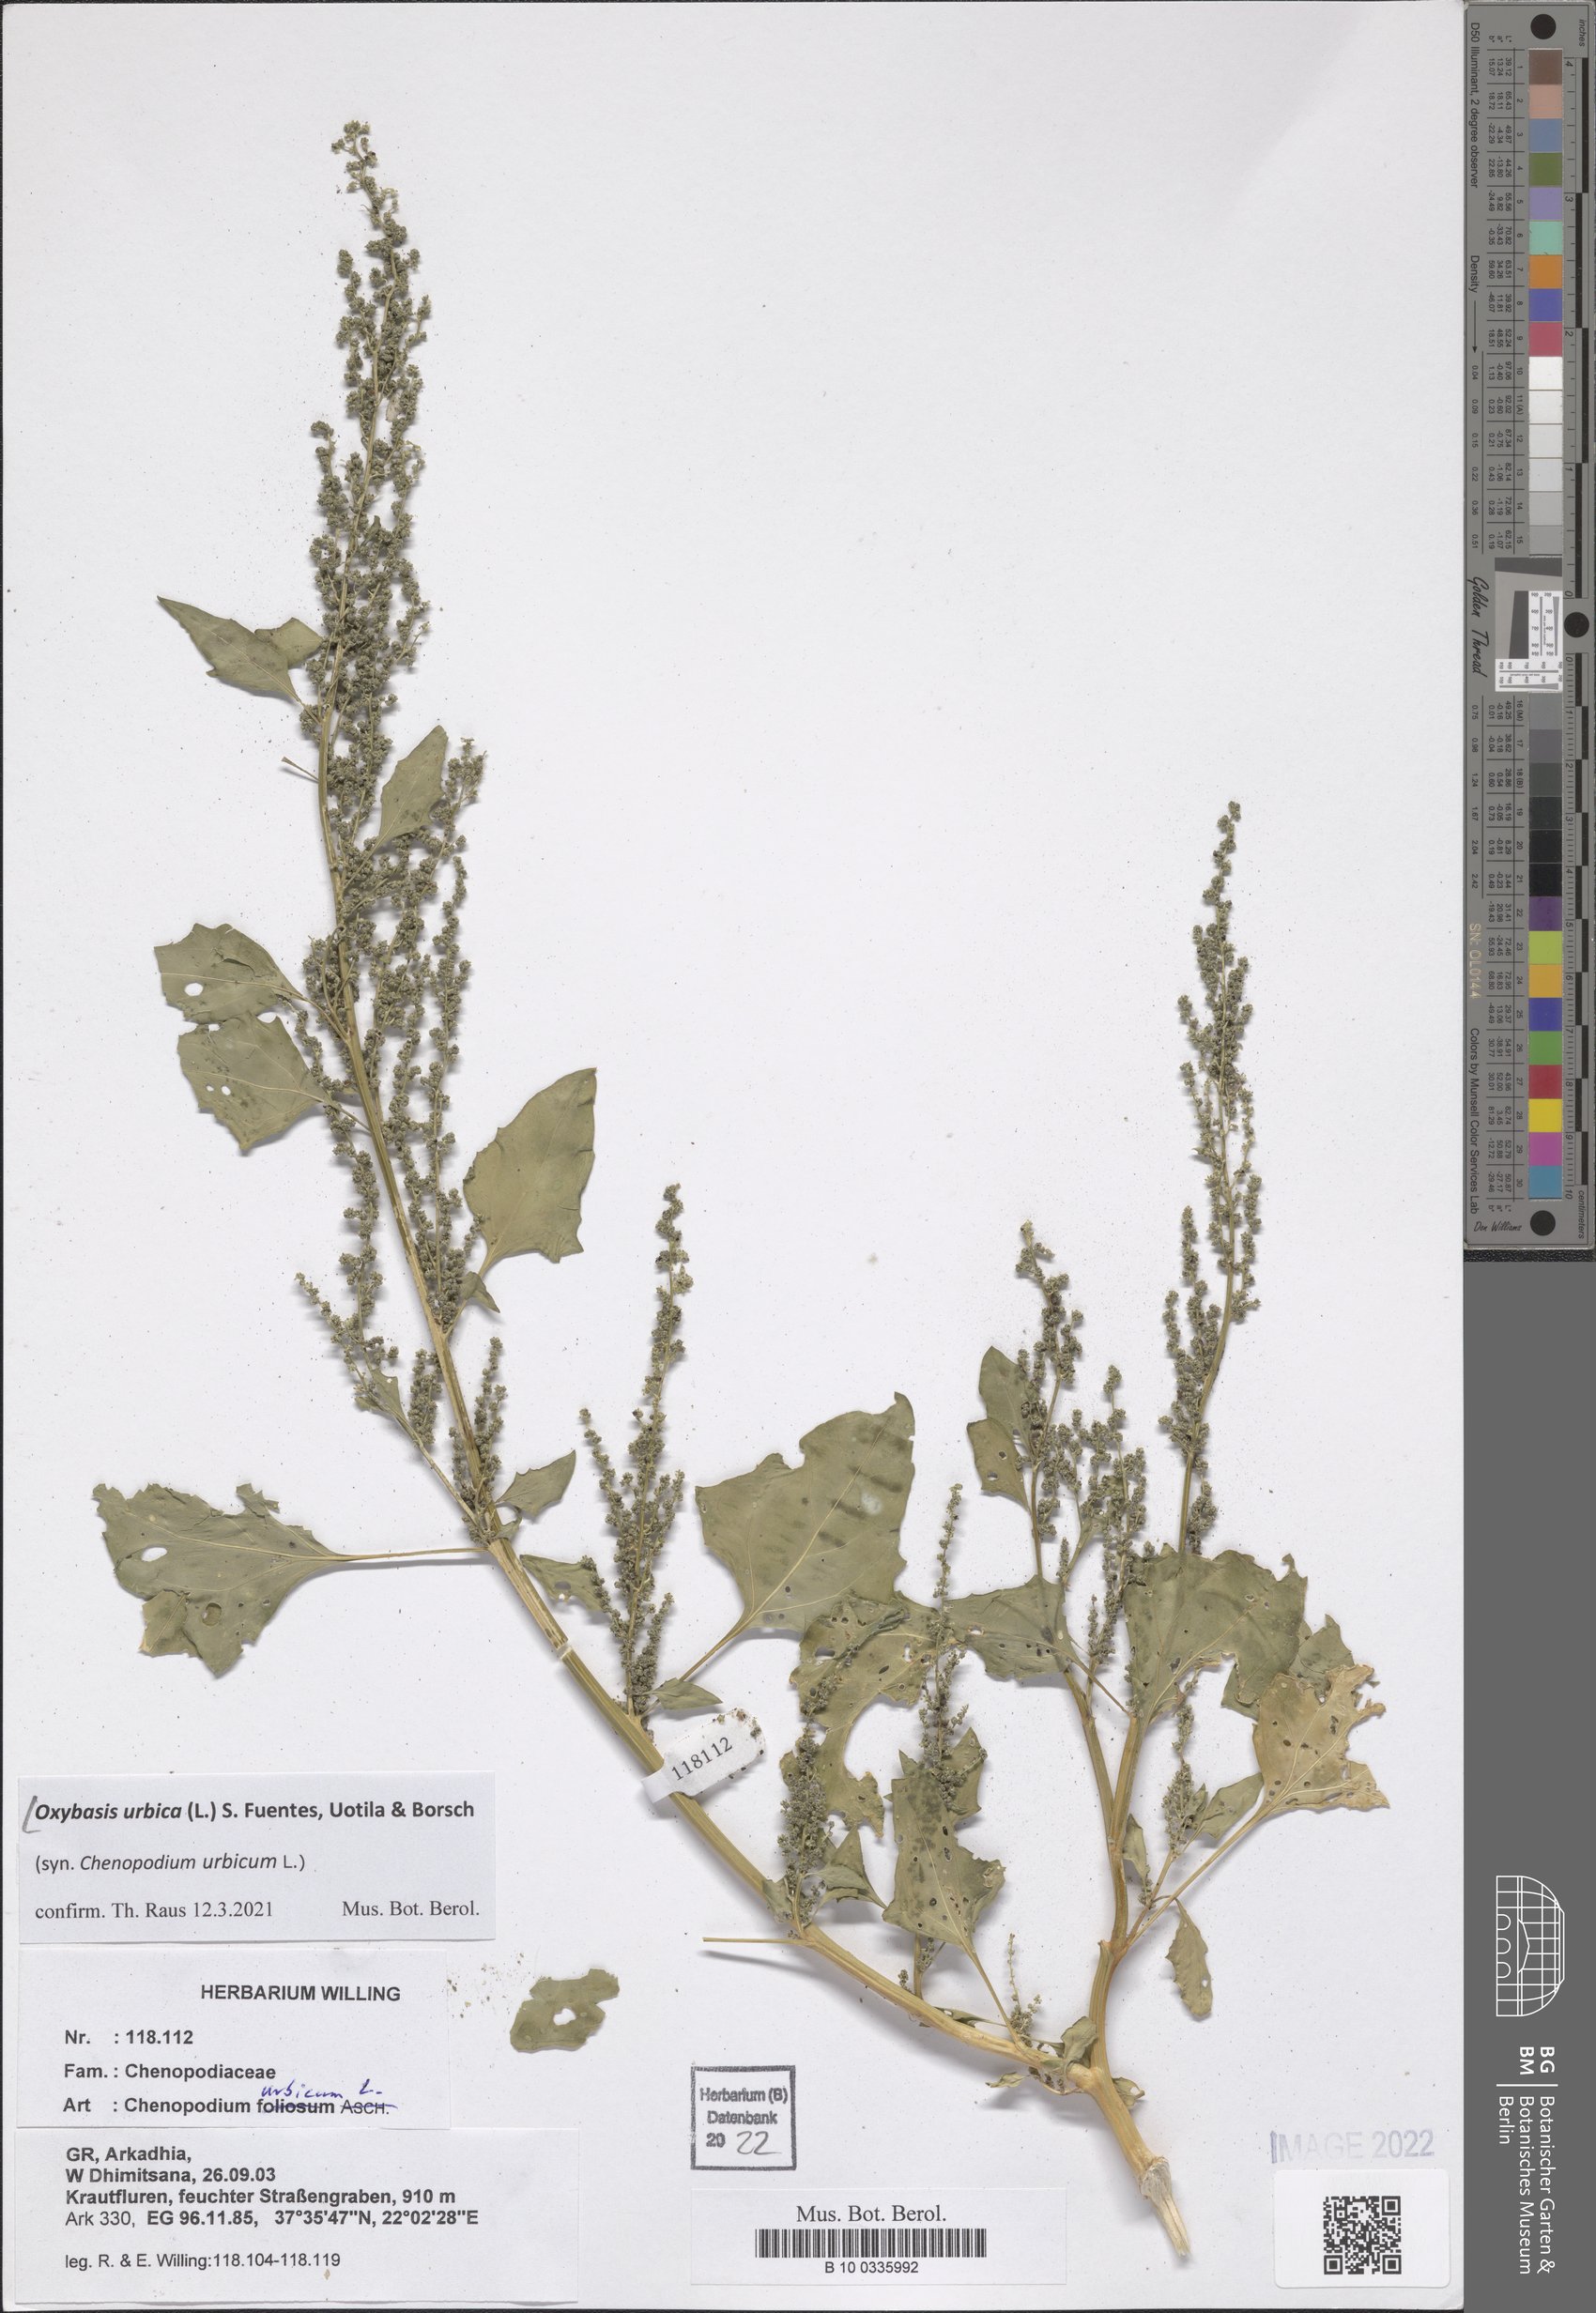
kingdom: Plantae
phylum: Tracheophyta
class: Magnoliopsida
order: Caryophyllales
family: Amaranthaceae
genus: Oxybasis
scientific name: Oxybasis urbica
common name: City goosefoot
